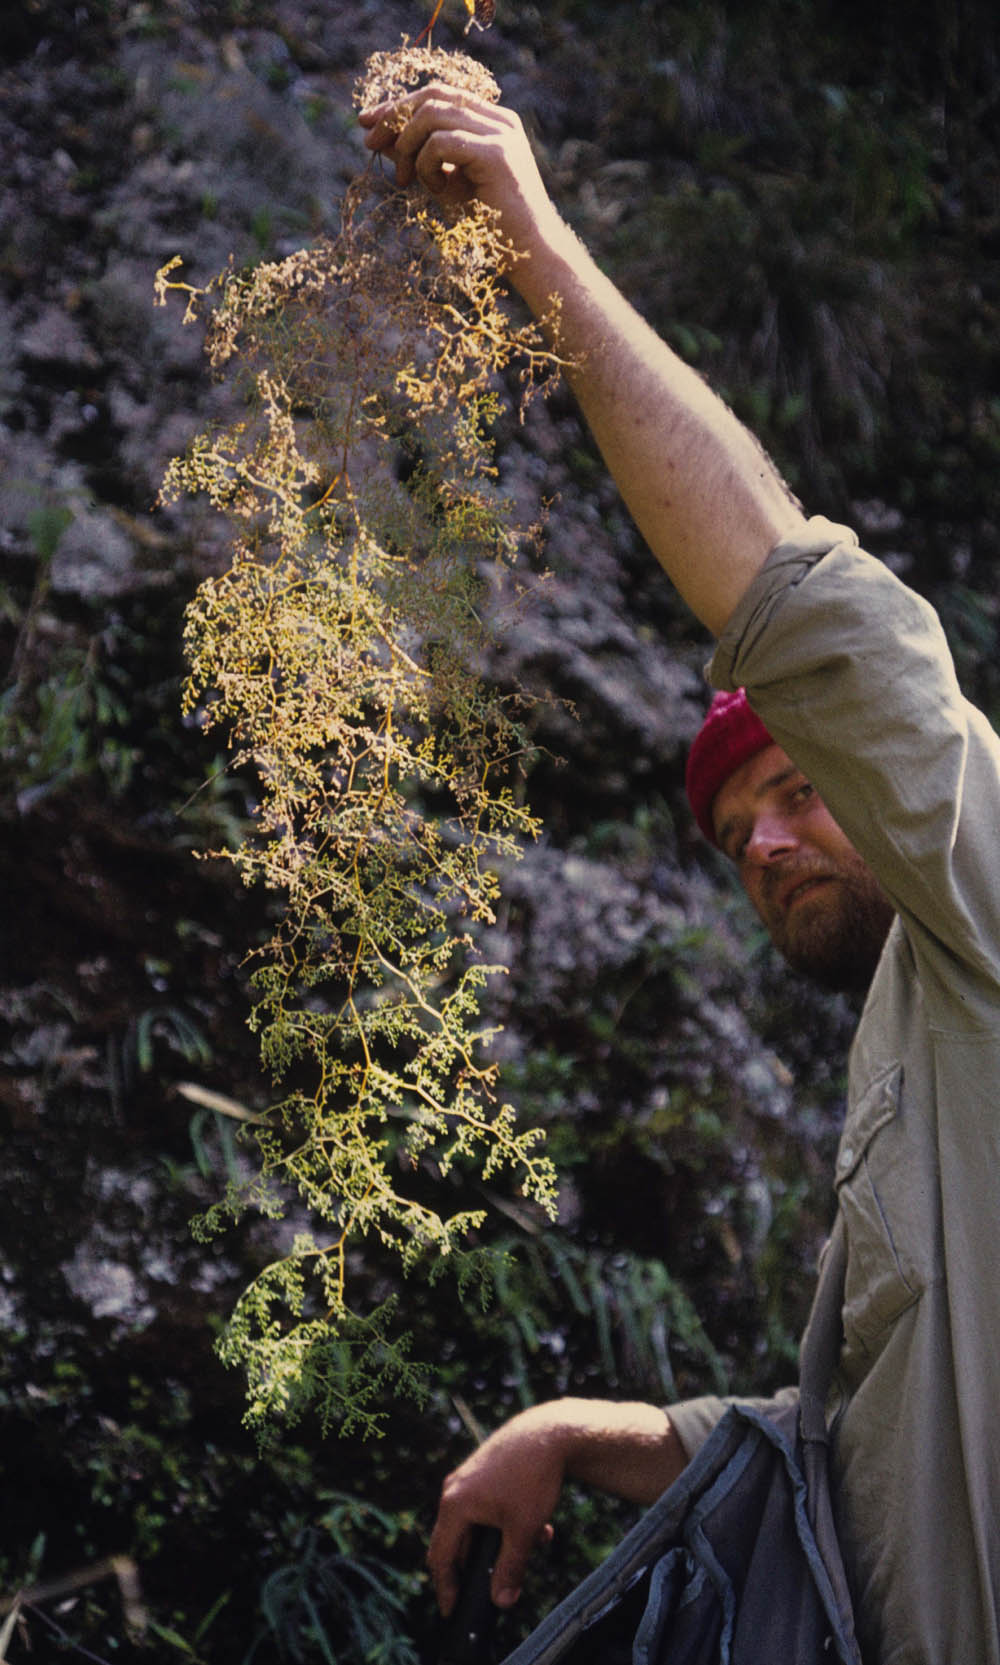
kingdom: Plantae
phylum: Tracheophyta
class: Polypodiopsida
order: Polypodiales
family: Pteridaceae
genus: Jamesonia
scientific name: Jamesonia flexuosa
